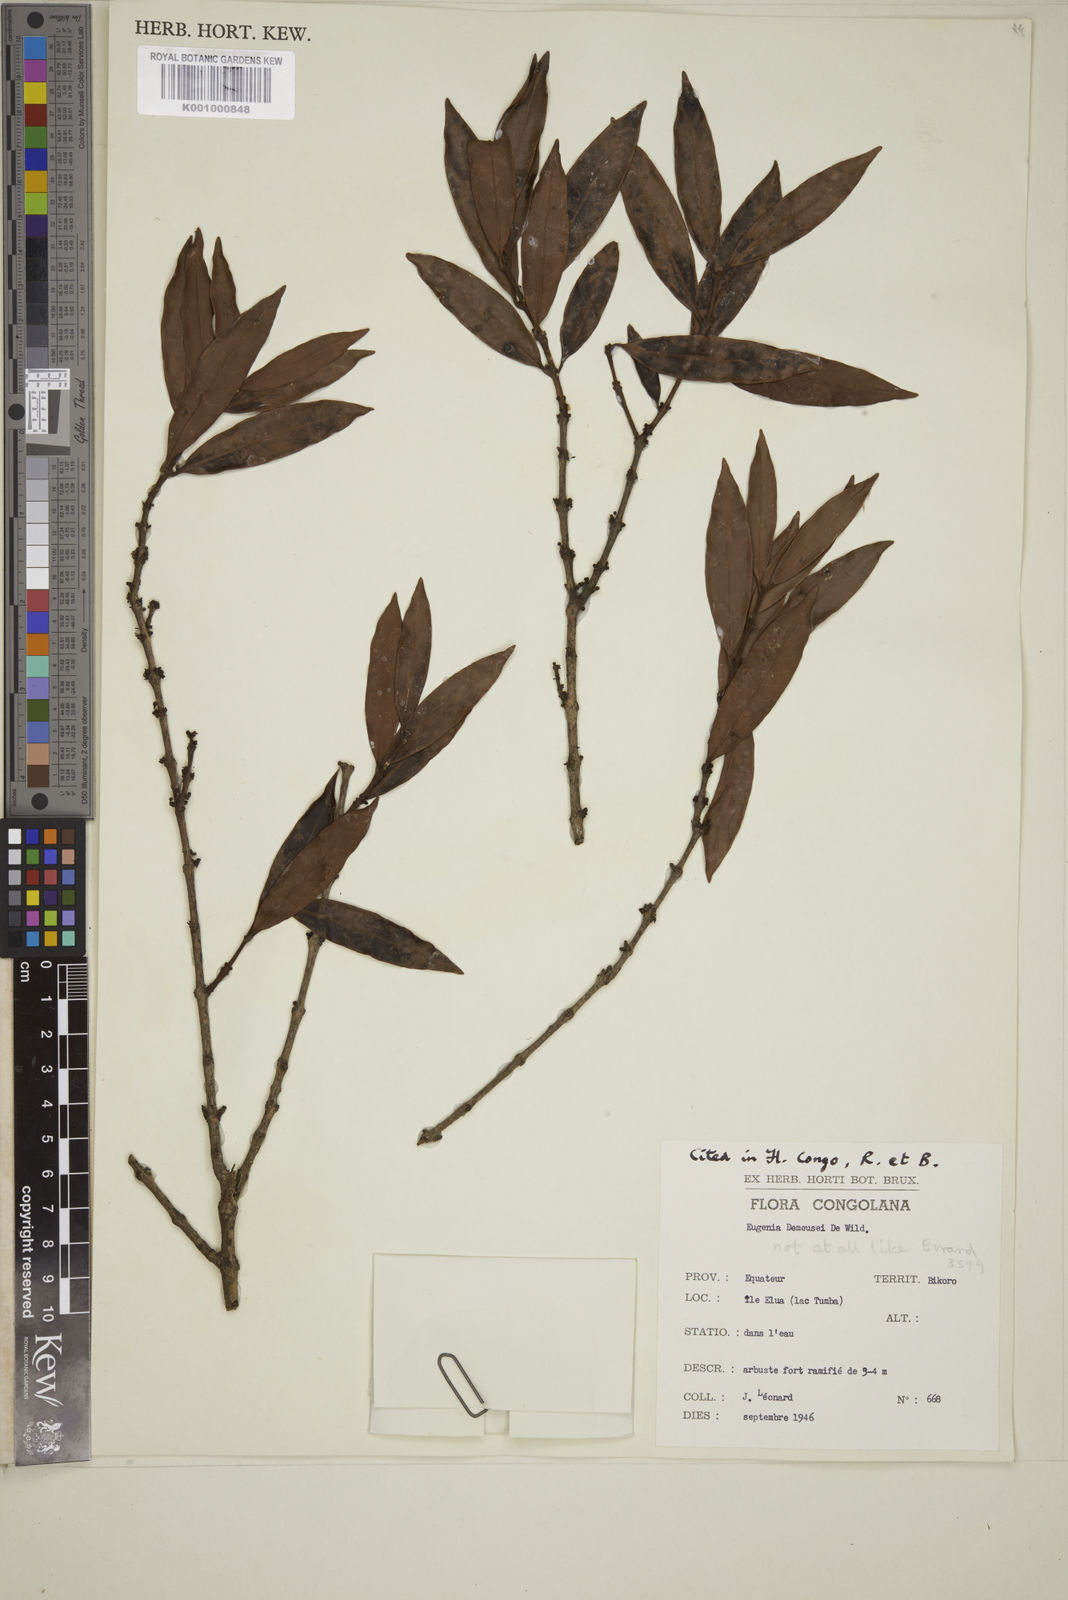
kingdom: Plantae
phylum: Tracheophyta
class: Magnoliopsida
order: Myrtales
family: Myrtaceae
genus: Eugenia
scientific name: Eugenia demeusei
